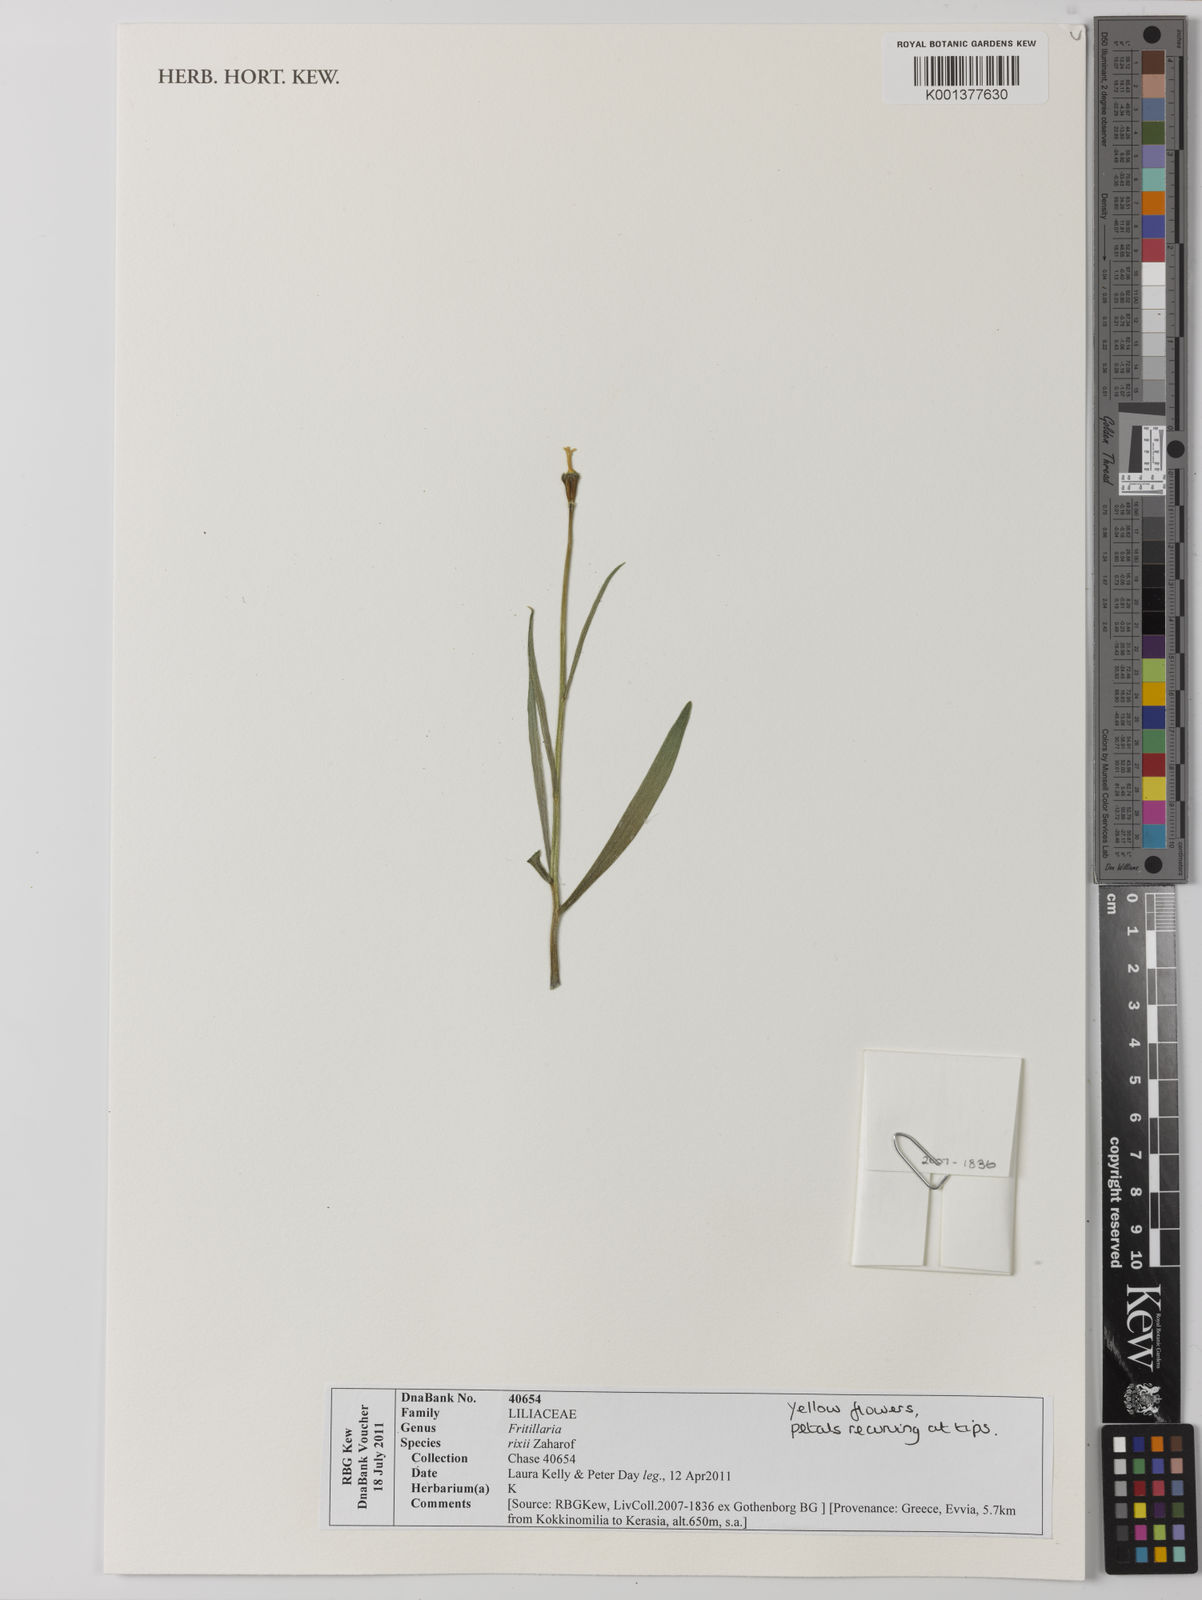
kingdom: Plantae
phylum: Tracheophyta
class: Liliopsida
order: Liliales
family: Liliaceae
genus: Fritillaria
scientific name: Fritillaria euboeica
